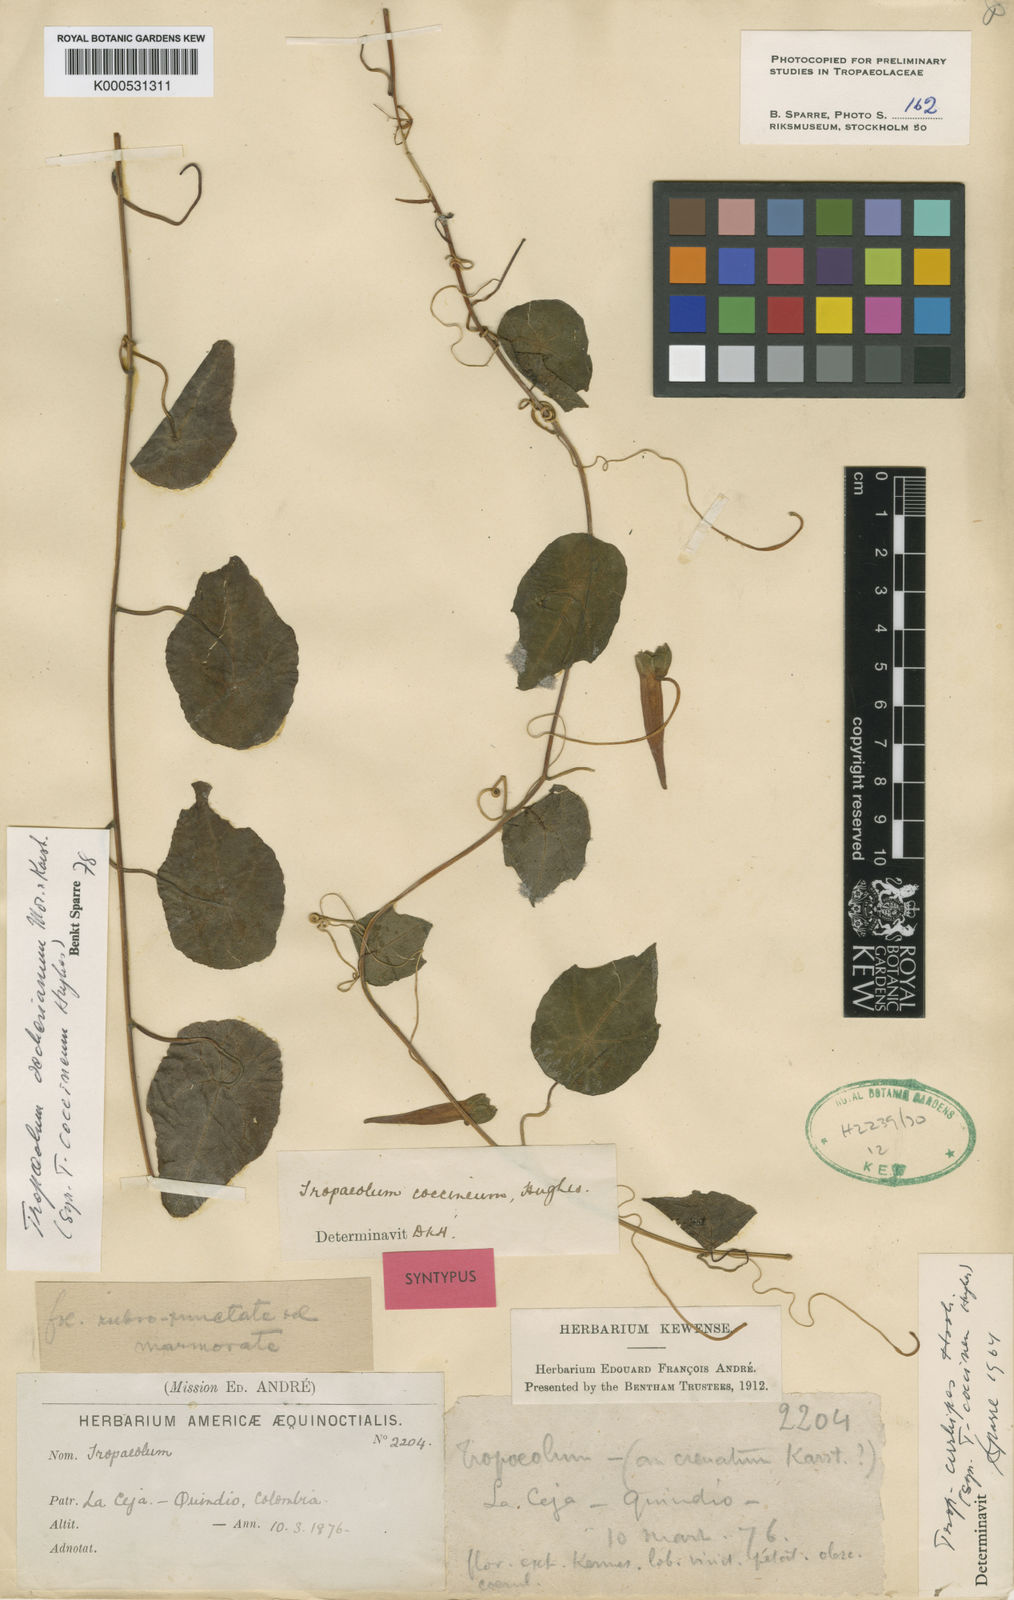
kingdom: Plantae
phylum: Tracheophyta
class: Magnoliopsida
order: Brassicales
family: Tropaeolaceae
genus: Tropaeolum
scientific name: Tropaeolum deckerianum
